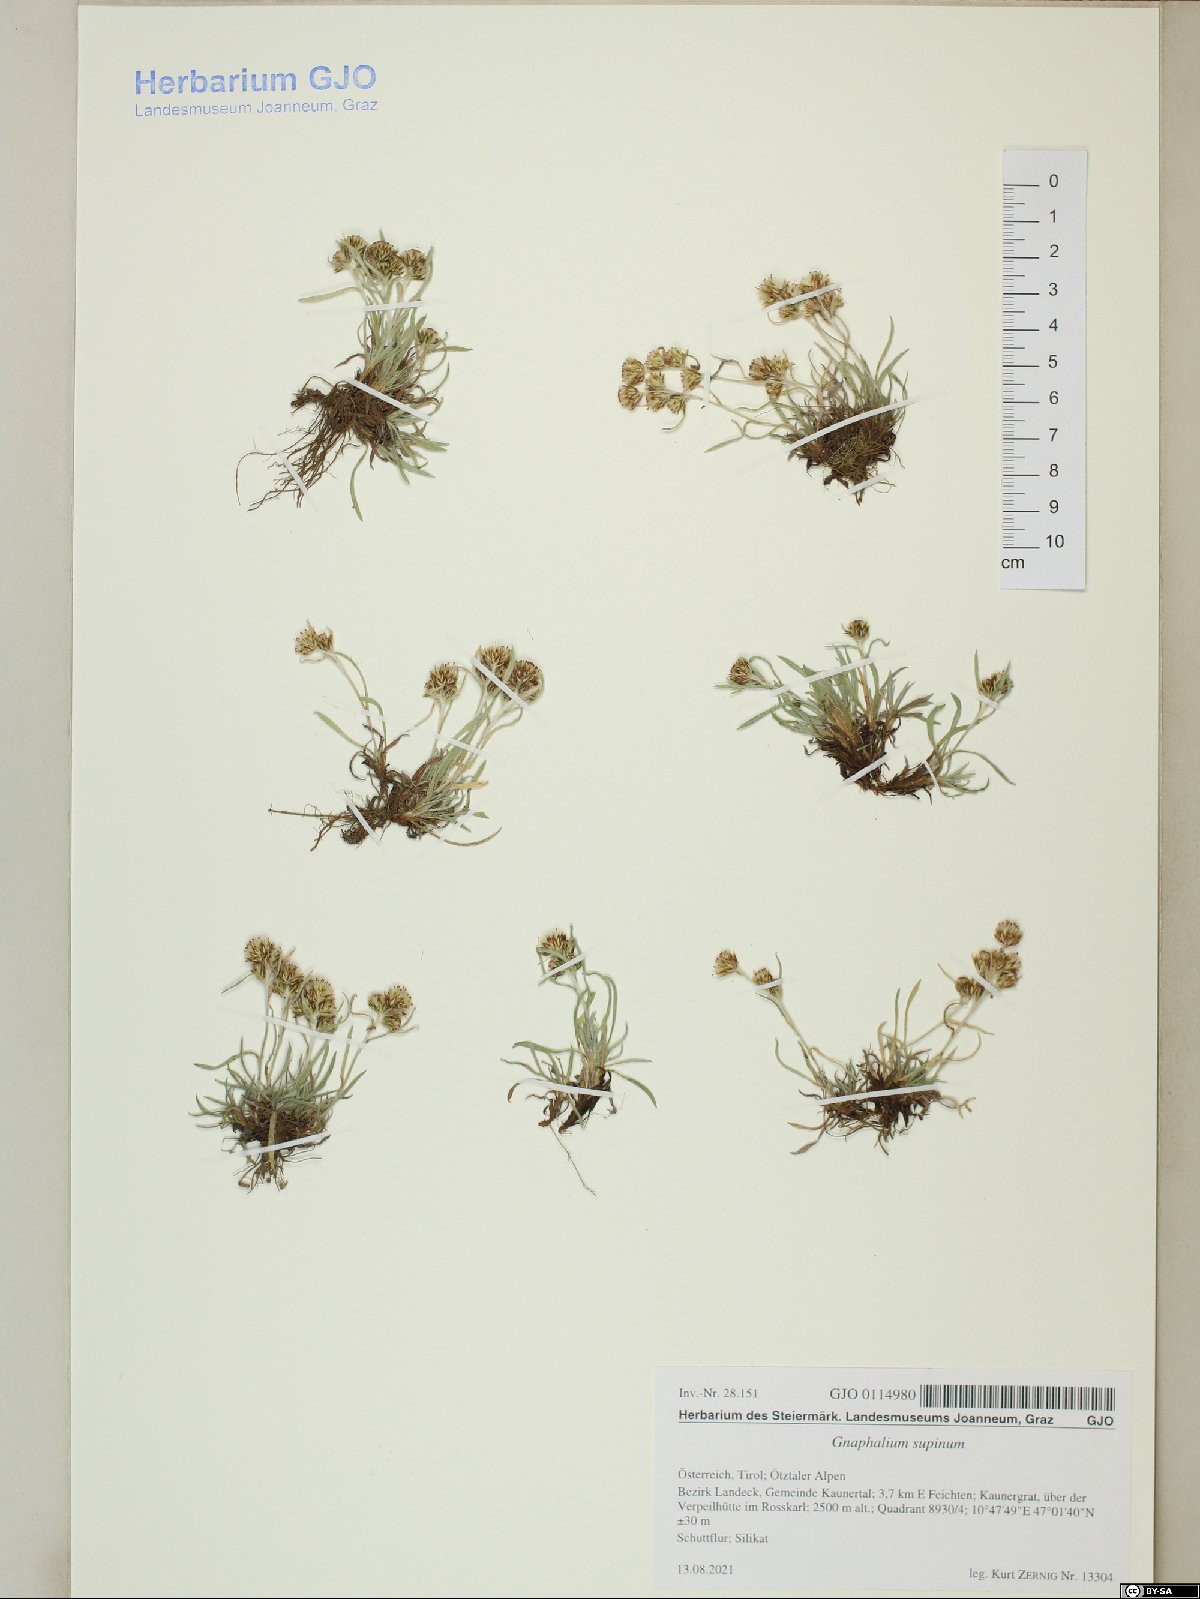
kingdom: Plantae
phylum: Tracheophyta
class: Magnoliopsida
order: Asterales
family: Asteraceae
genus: Omalotheca
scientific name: Omalotheca supina
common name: Alpine arctic-cudweed
